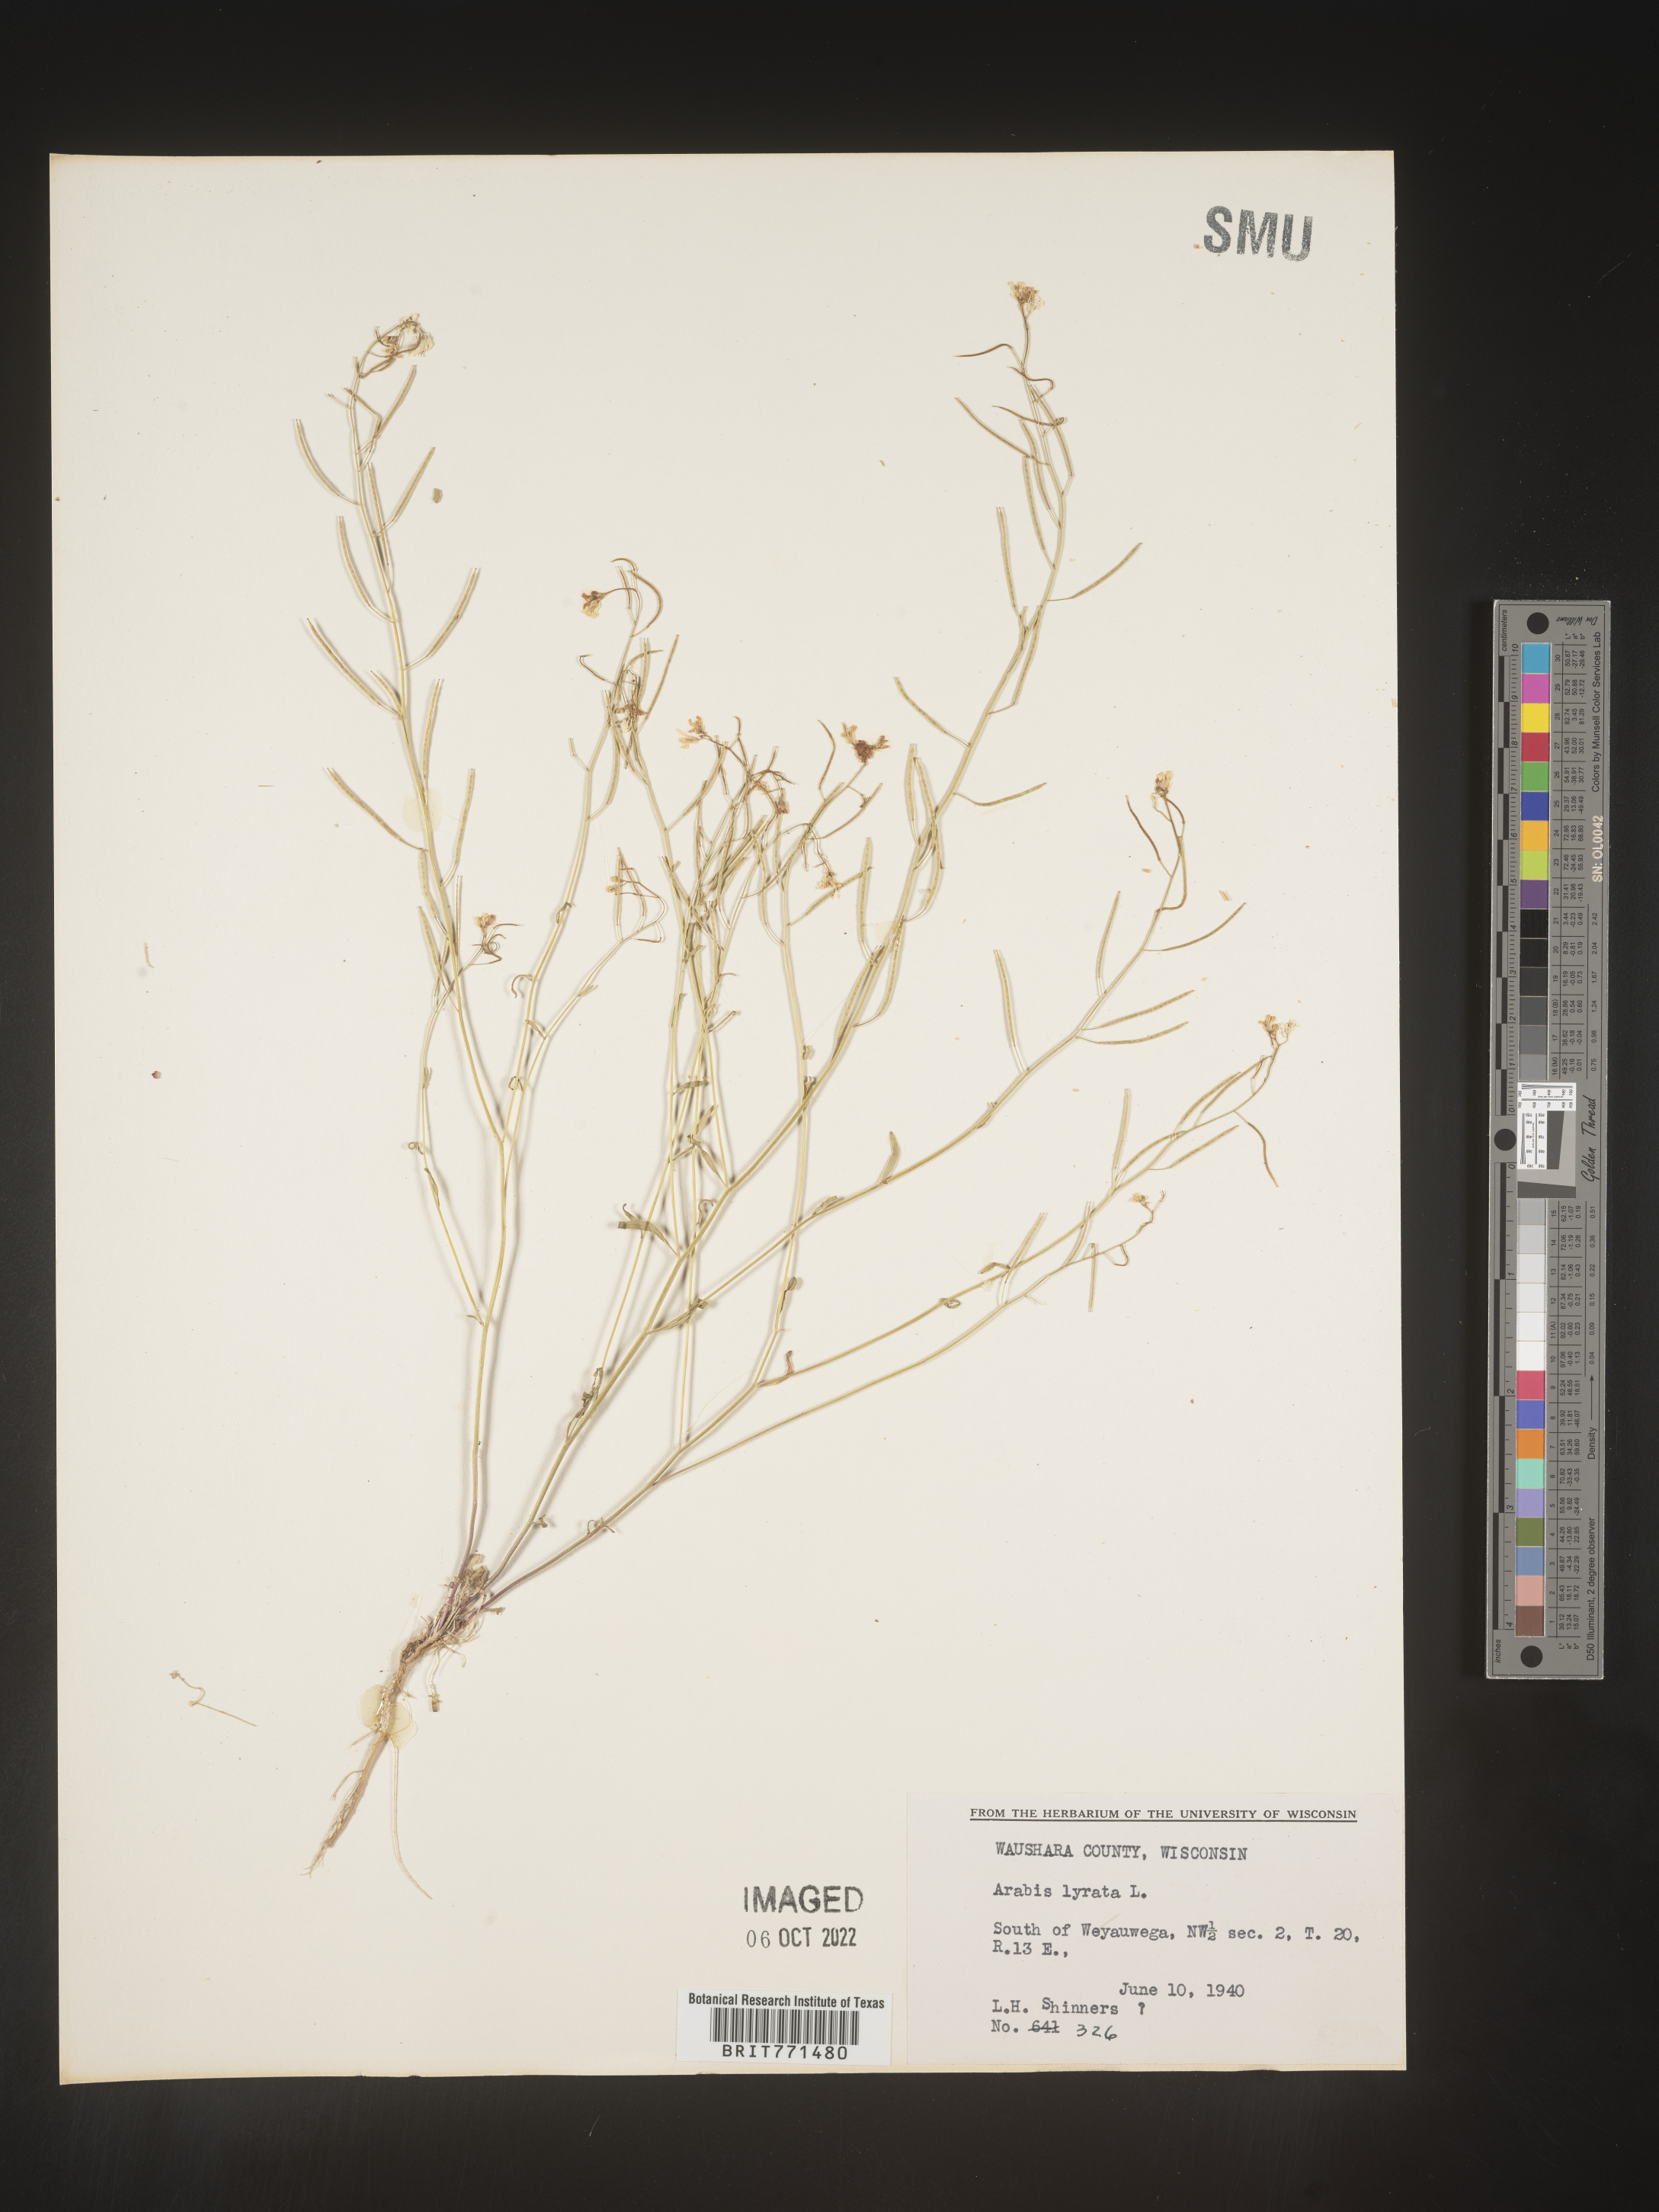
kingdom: Plantae
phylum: Tracheophyta
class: Magnoliopsida
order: Brassicales
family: Brassicaceae
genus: Arabidopsis
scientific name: Arabidopsis lyrata
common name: Lyrate rockcress
